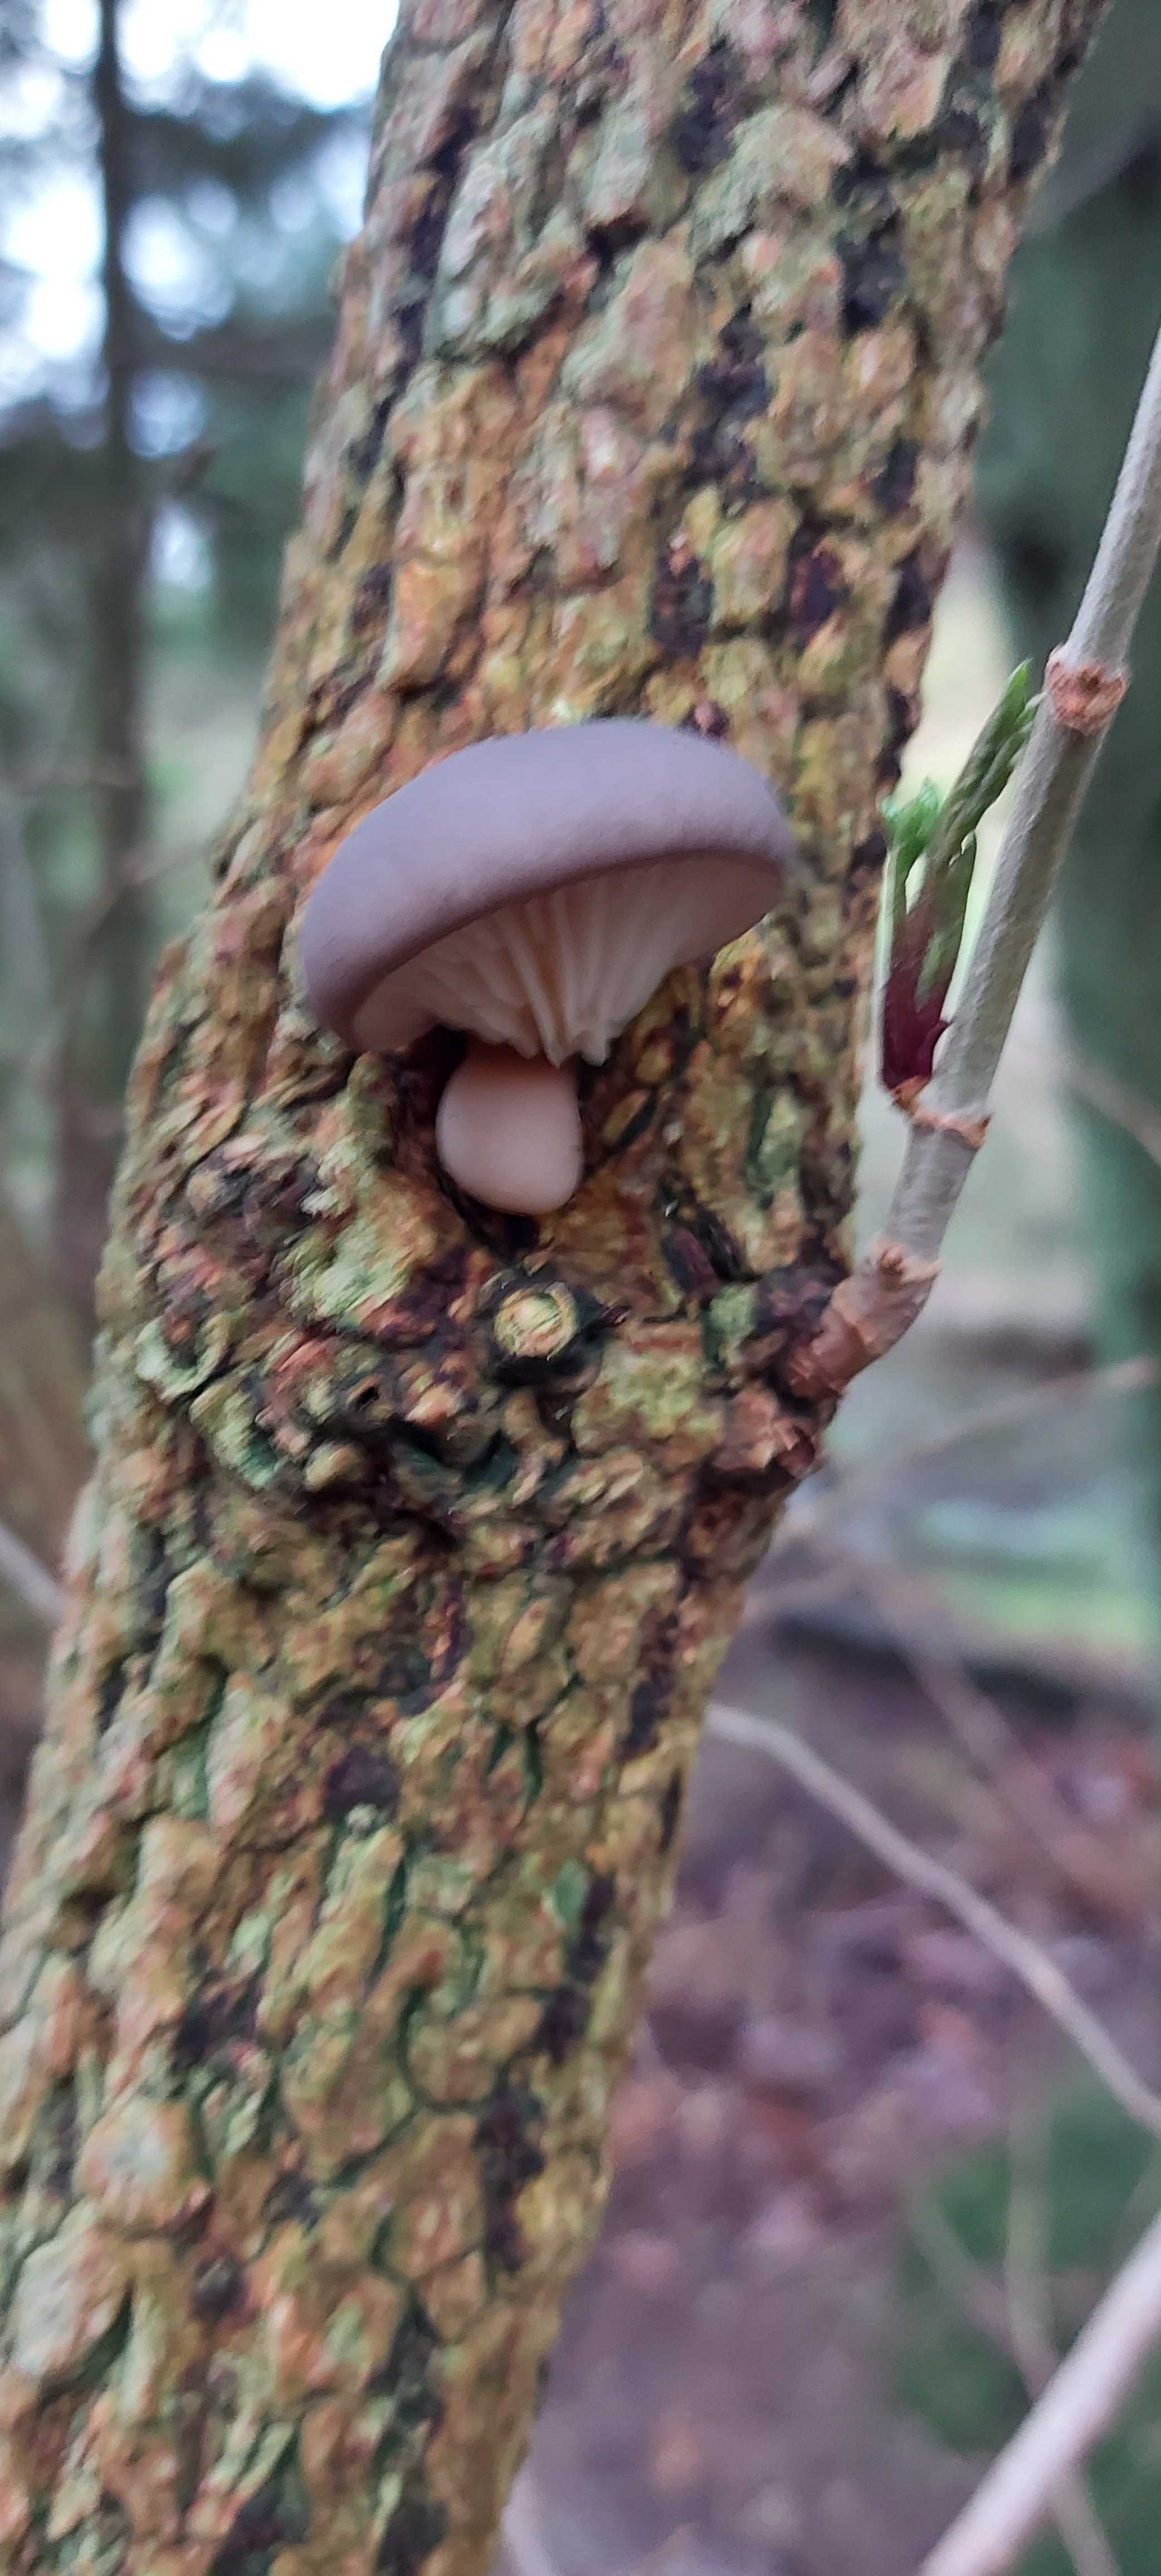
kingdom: Fungi
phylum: Basidiomycota
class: Agaricomycetes
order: Agaricales
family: Pleurotaceae
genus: Pleurotus
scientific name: Pleurotus ostreatus
